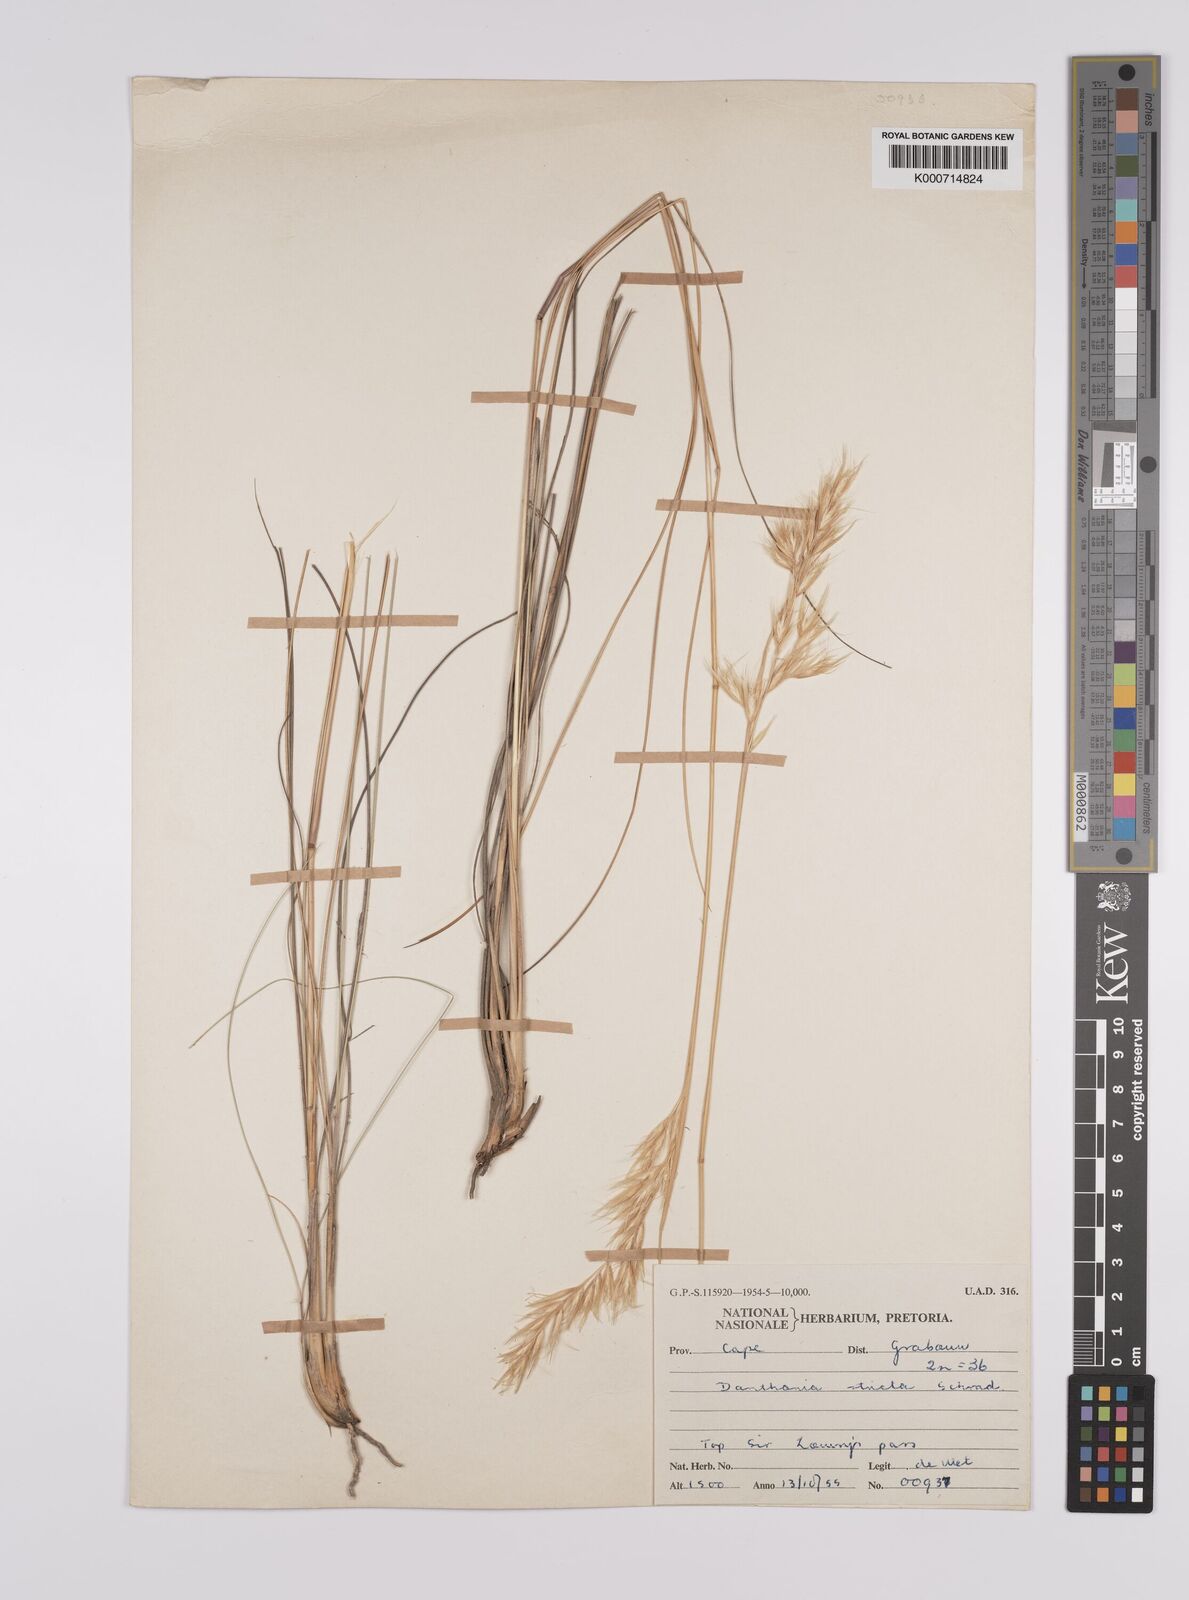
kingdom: Plantae
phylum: Tracheophyta
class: Liliopsida
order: Poales
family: Poaceae
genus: Rytidosperma
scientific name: Rytidosperma
